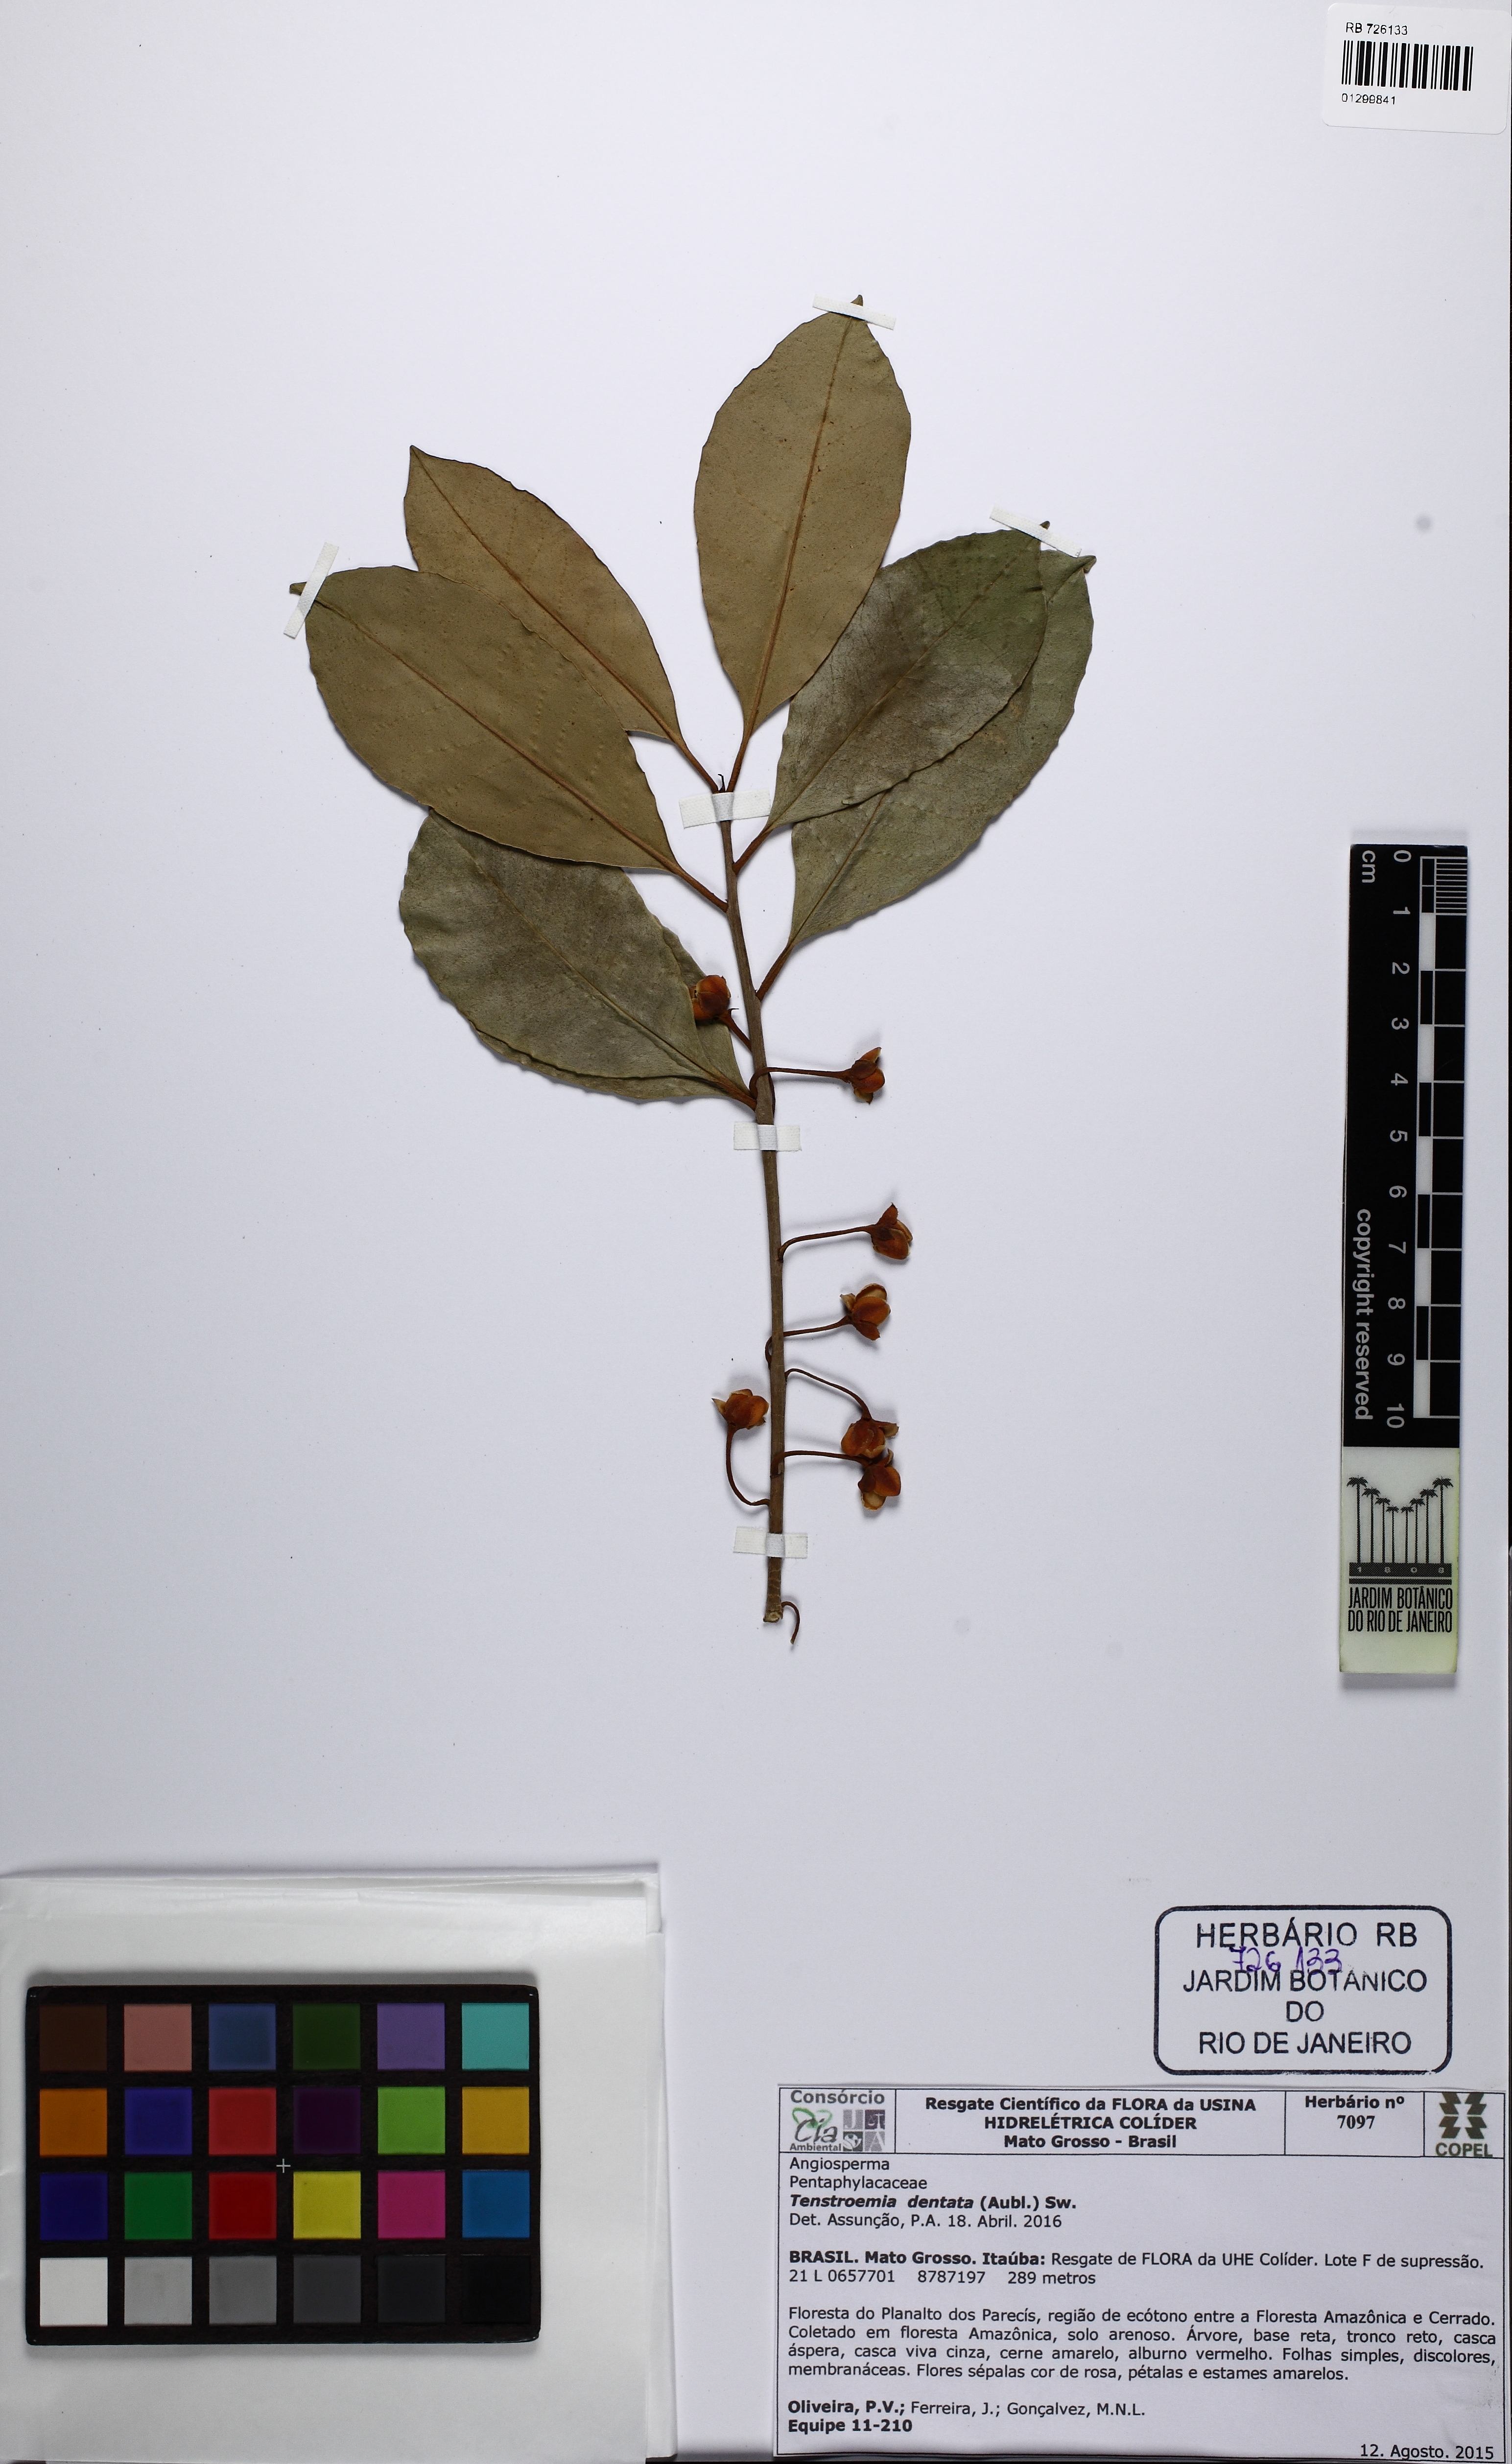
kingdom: Plantae
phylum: Tracheophyta
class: Magnoliopsida
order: Ericales
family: Pentaphylacaceae
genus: Ternstroemia
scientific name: Ternstroemia dentata
